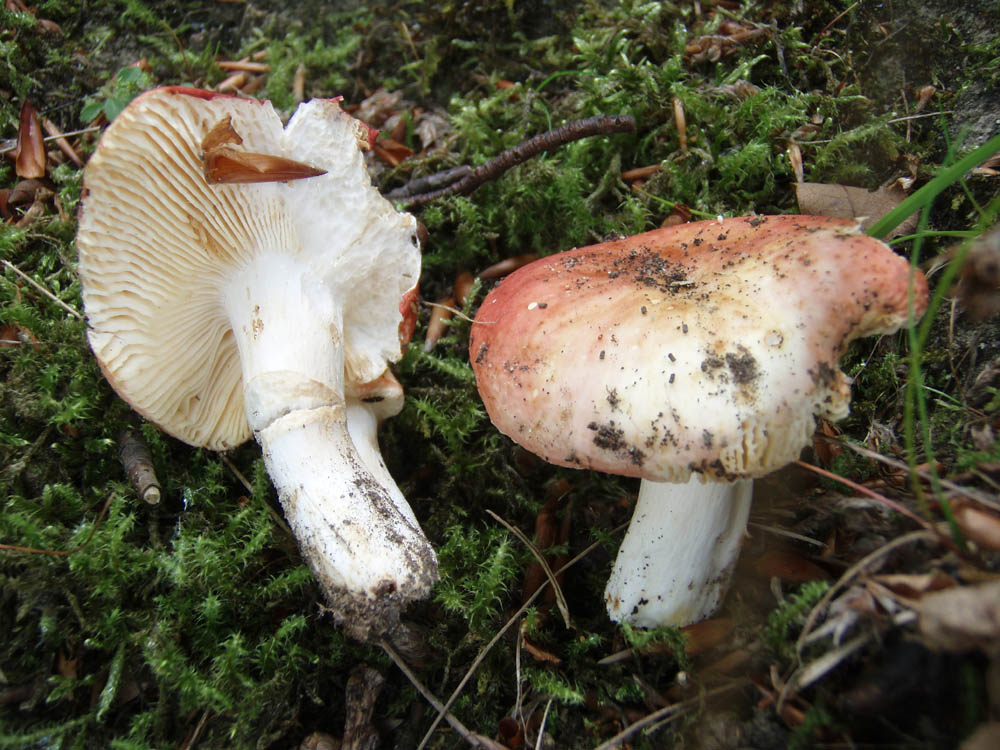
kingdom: Fungi
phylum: Basidiomycota
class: Agaricomycetes
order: Russulales
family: Russulaceae
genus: Russula
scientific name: Russula maculata
